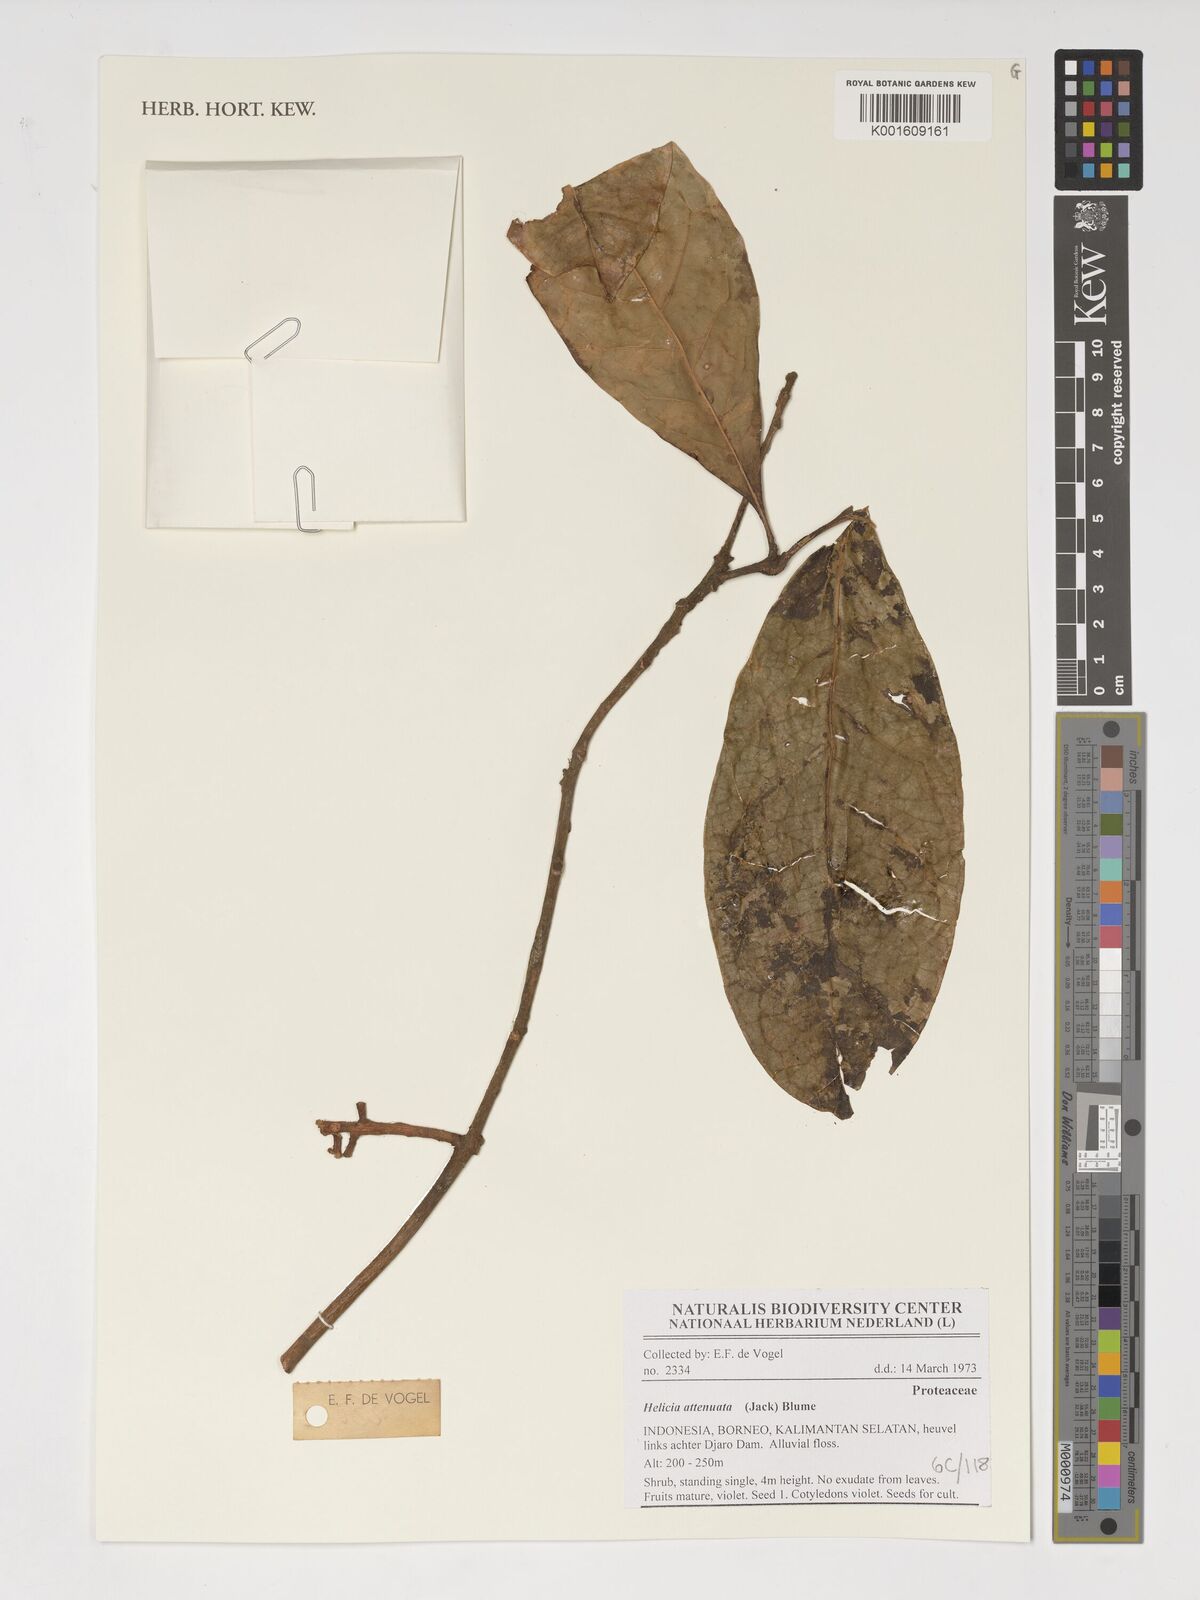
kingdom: Plantae
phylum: Tracheophyta
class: Magnoliopsida
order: Proteales
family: Proteaceae
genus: Helicia
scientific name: Helicia attenuata
